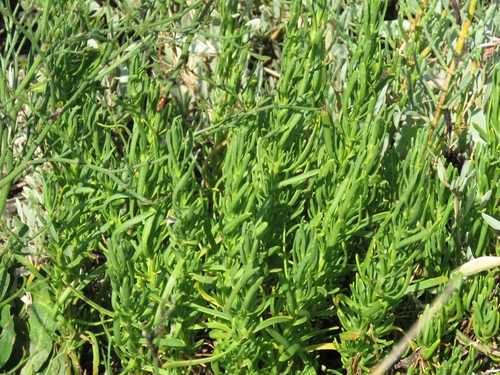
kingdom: Plantae
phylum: Tracheophyta
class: Magnoliopsida
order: Asterales
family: Asteraceae
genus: Limbarda
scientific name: Limbarda crithmoides
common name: Golden samphire
